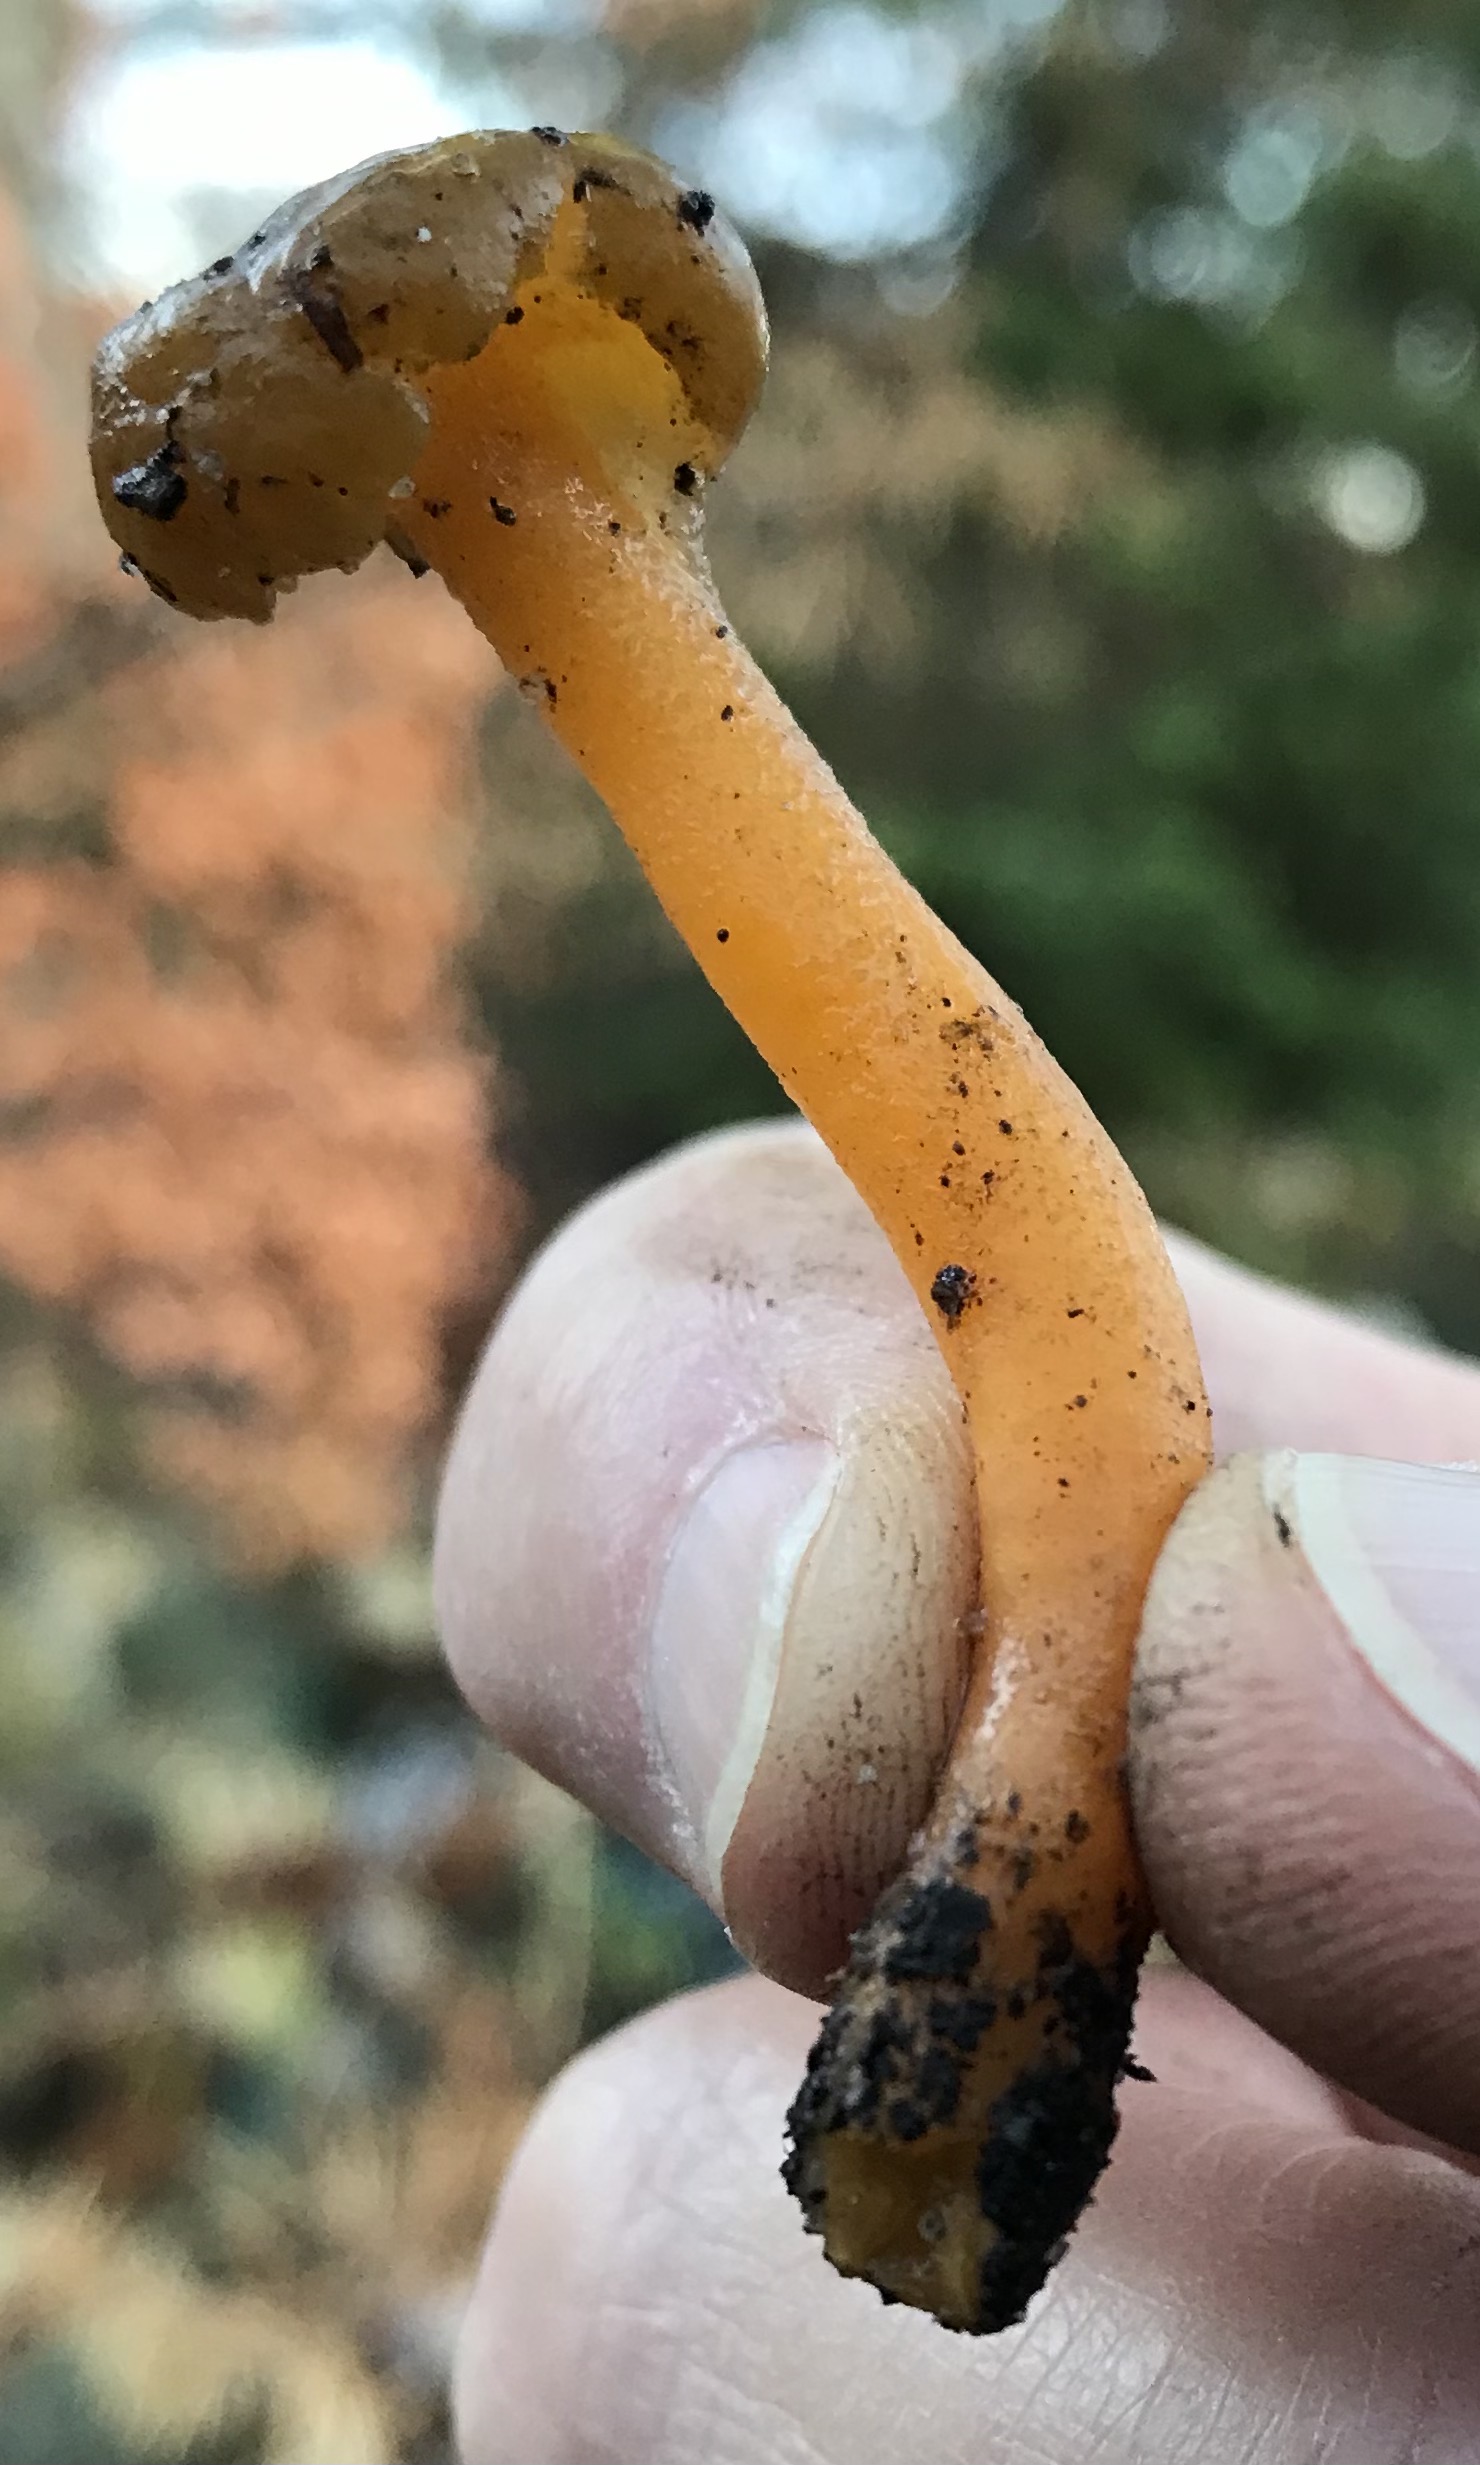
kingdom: Fungi
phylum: Ascomycota
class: Leotiomycetes
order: Leotiales
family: Leotiaceae
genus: Leotia
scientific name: Leotia lubrica
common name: ravsvamp
